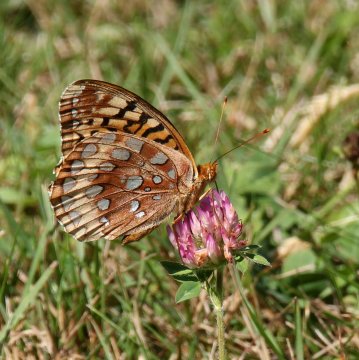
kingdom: Animalia
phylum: Arthropoda
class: Insecta
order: Lepidoptera
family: Nymphalidae
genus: Speyeria
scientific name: Speyeria cybele
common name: Great Spangled Fritillary
